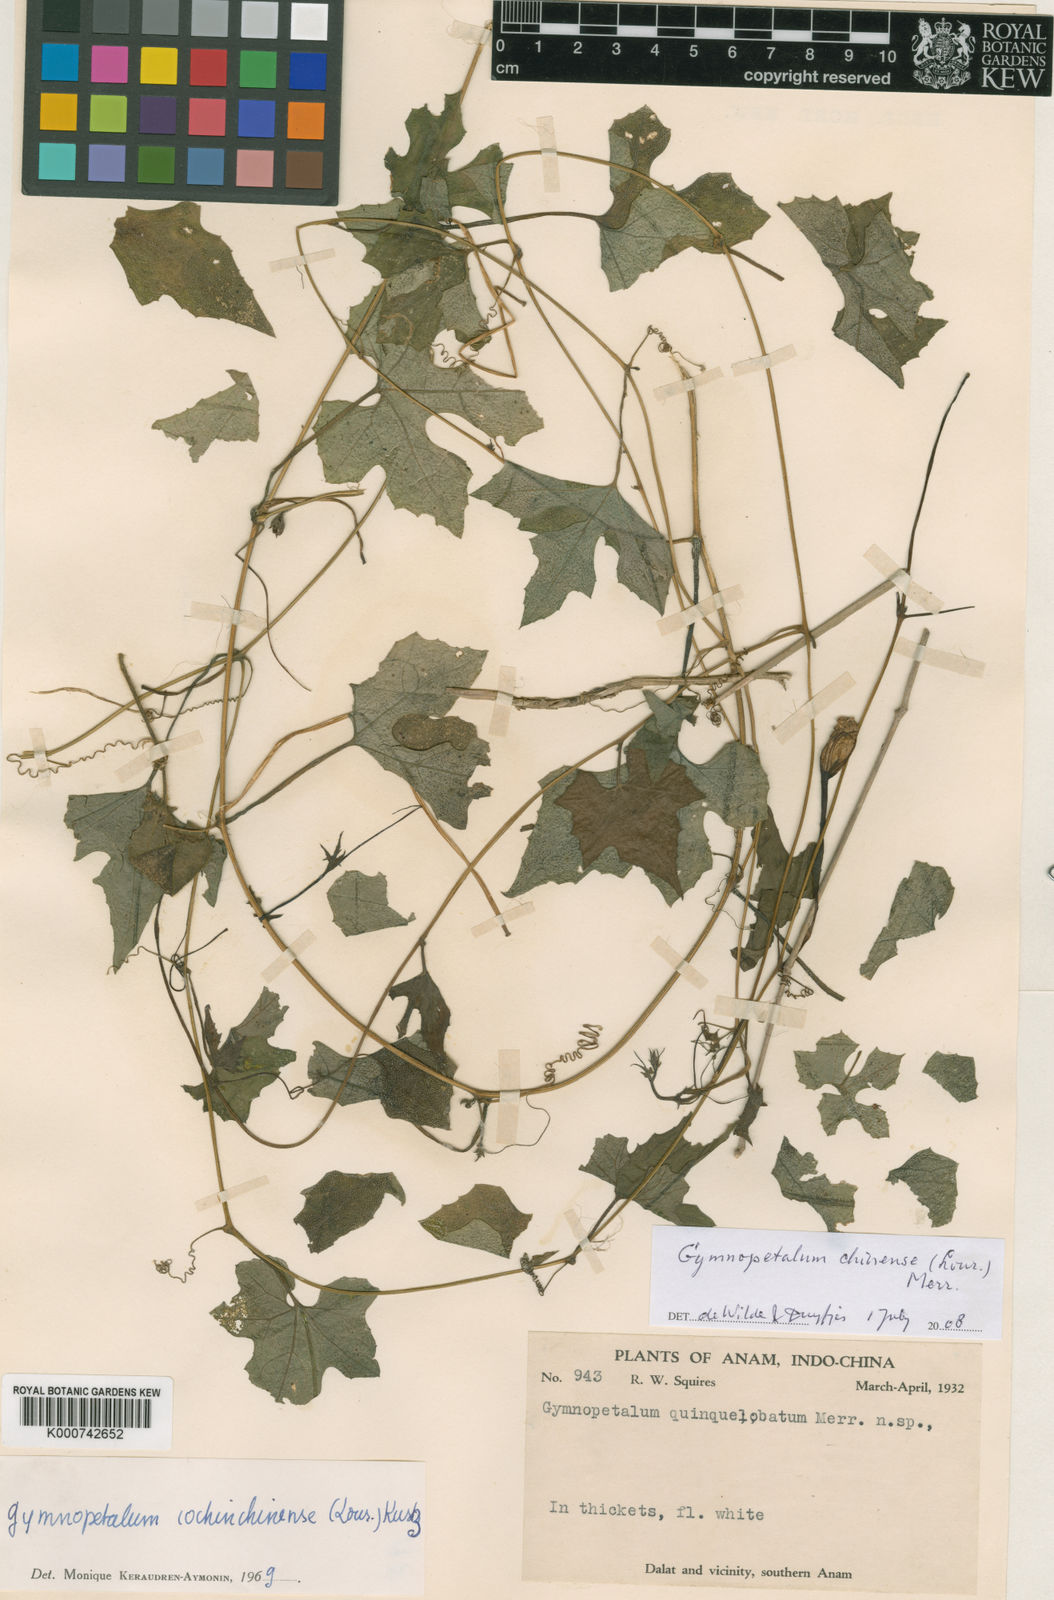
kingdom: Plantae
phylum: Tracheophyta
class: Magnoliopsida
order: Cucurbitales
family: Cucurbitaceae
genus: Trichosanthes
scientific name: Trichosanthes costata
